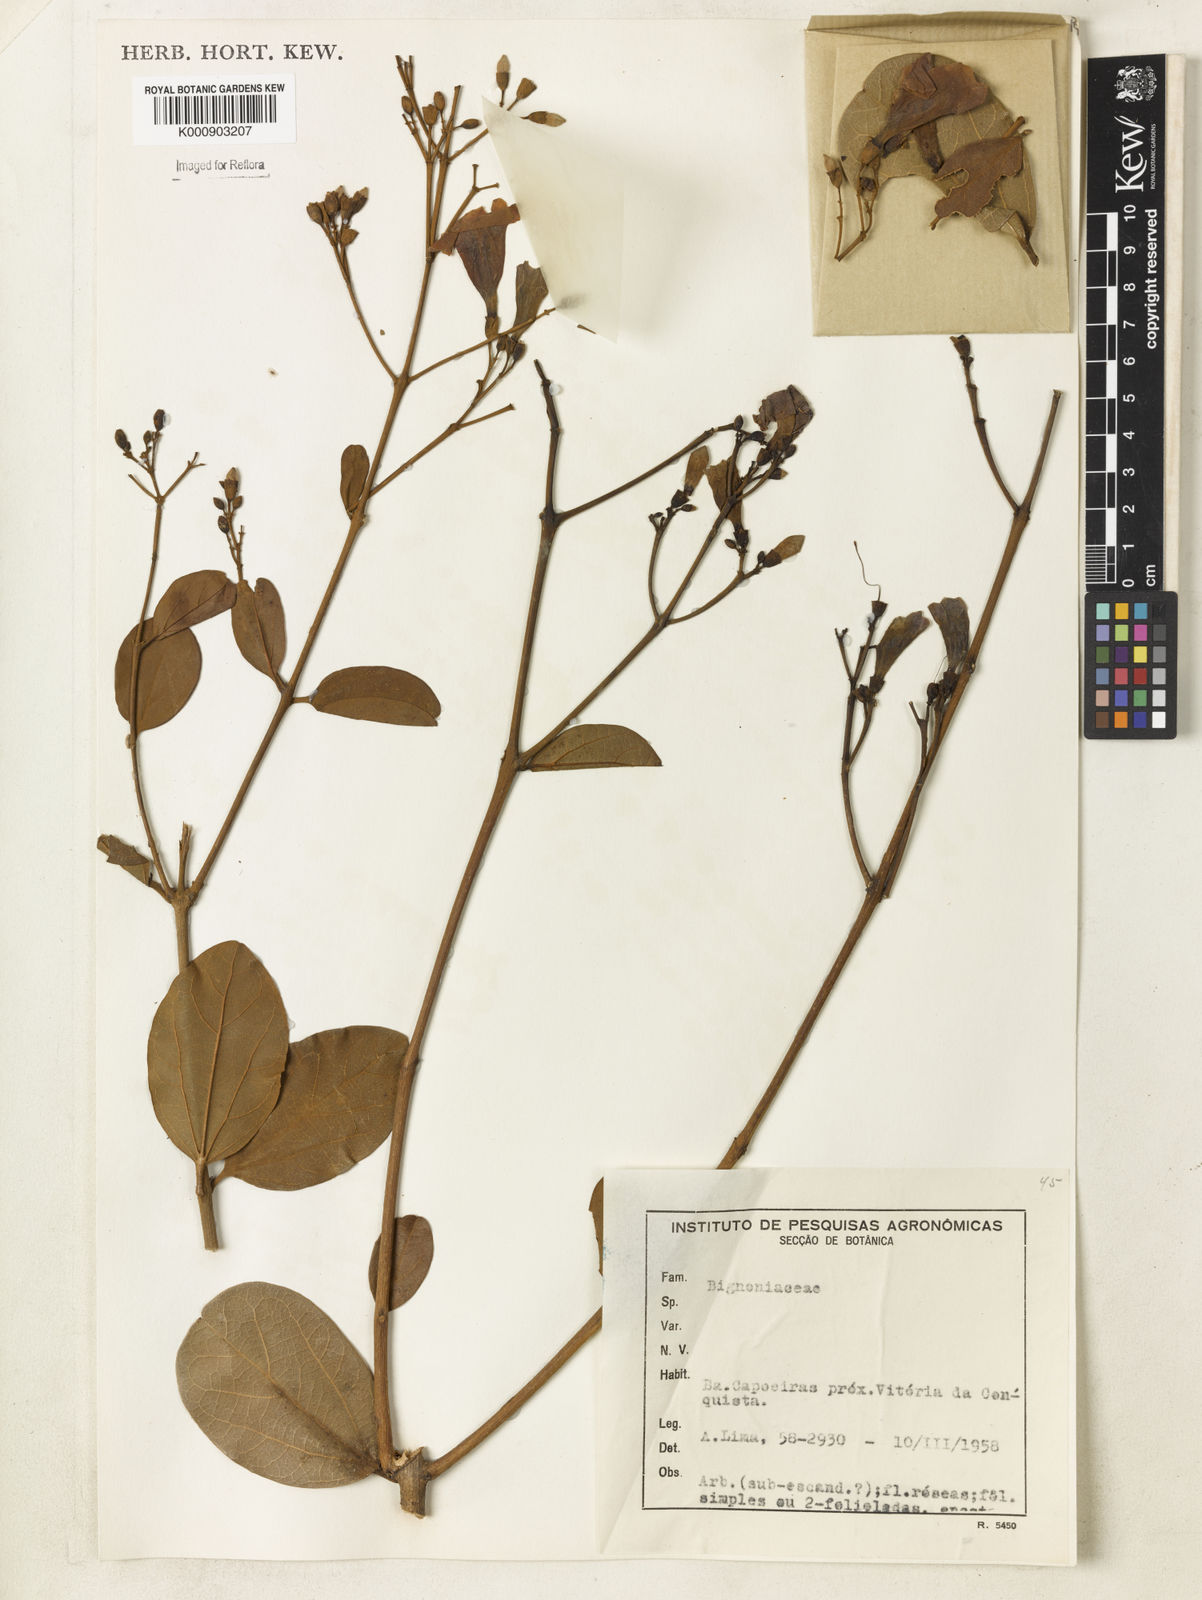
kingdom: Plantae
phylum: Tracheophyta
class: Magnoliopsida
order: Lamiales
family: Bignoniaceae
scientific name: Bignoniaceae
